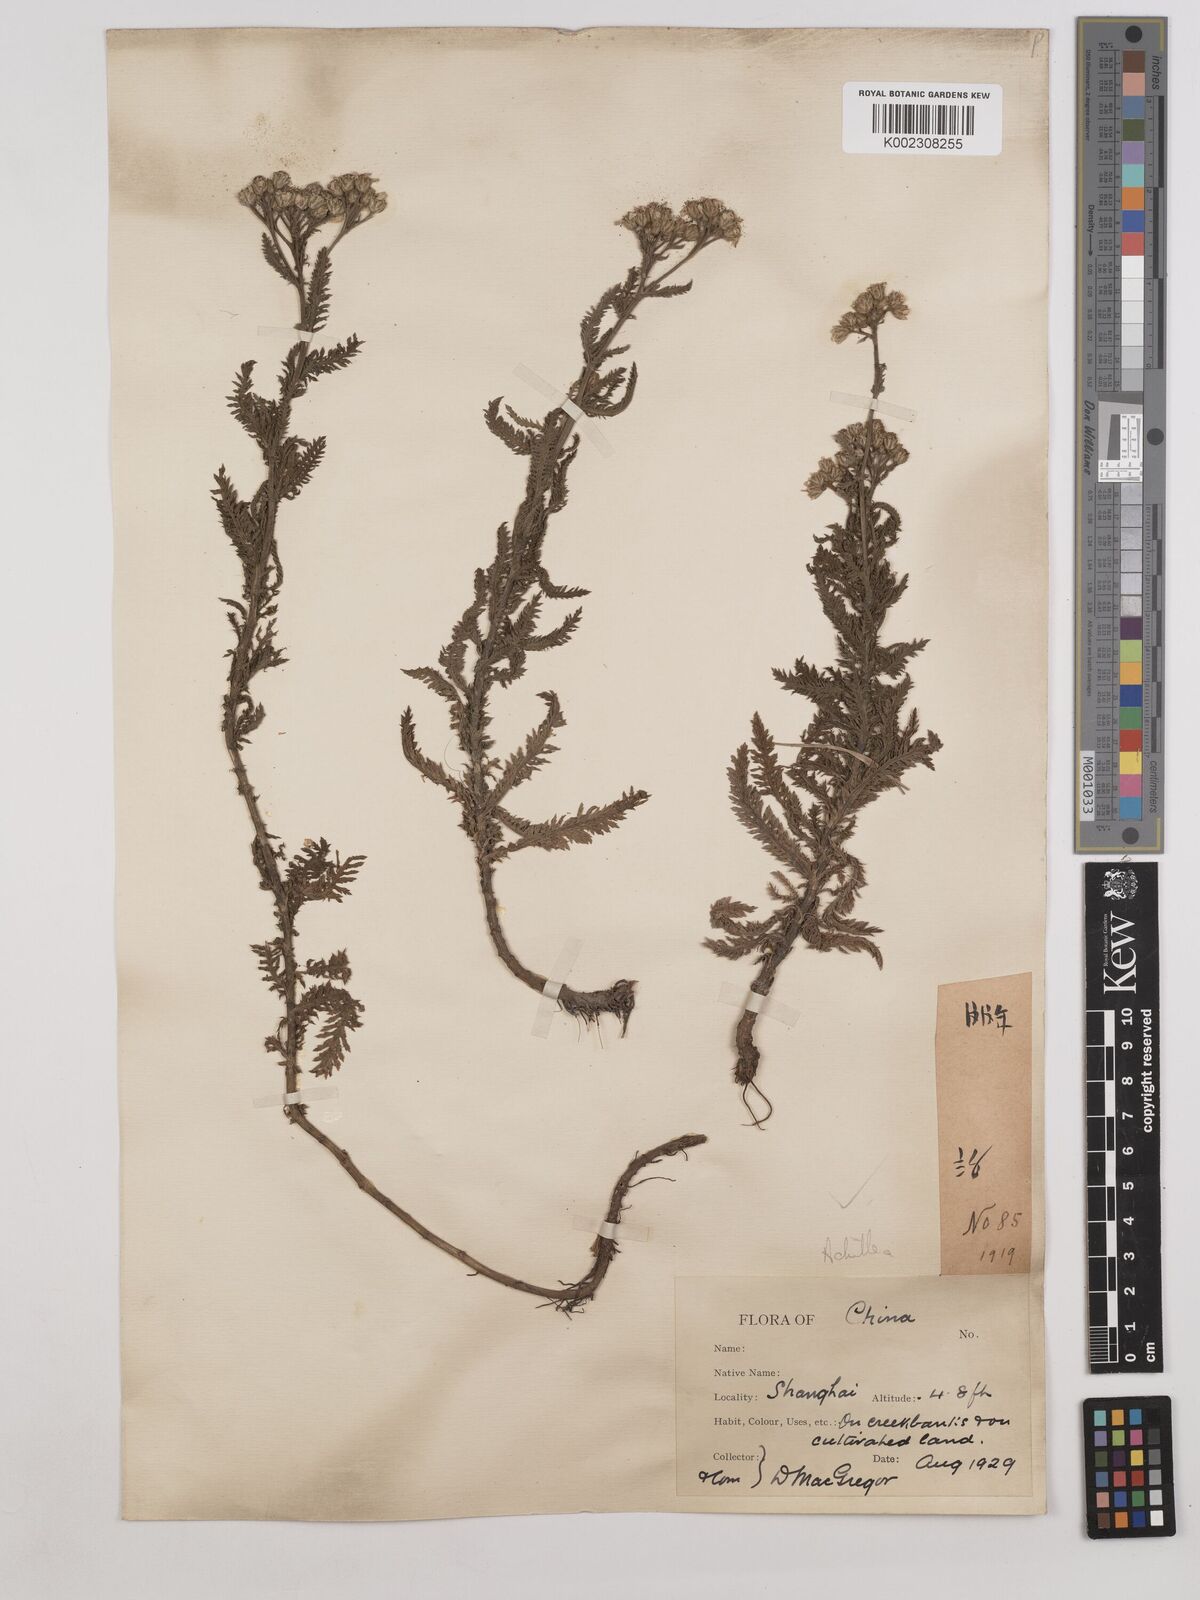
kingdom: Plantae
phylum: Tracheophyta
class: Magnoliopsida
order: Asterales
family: Asteraceae
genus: Achillea
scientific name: Achillea
